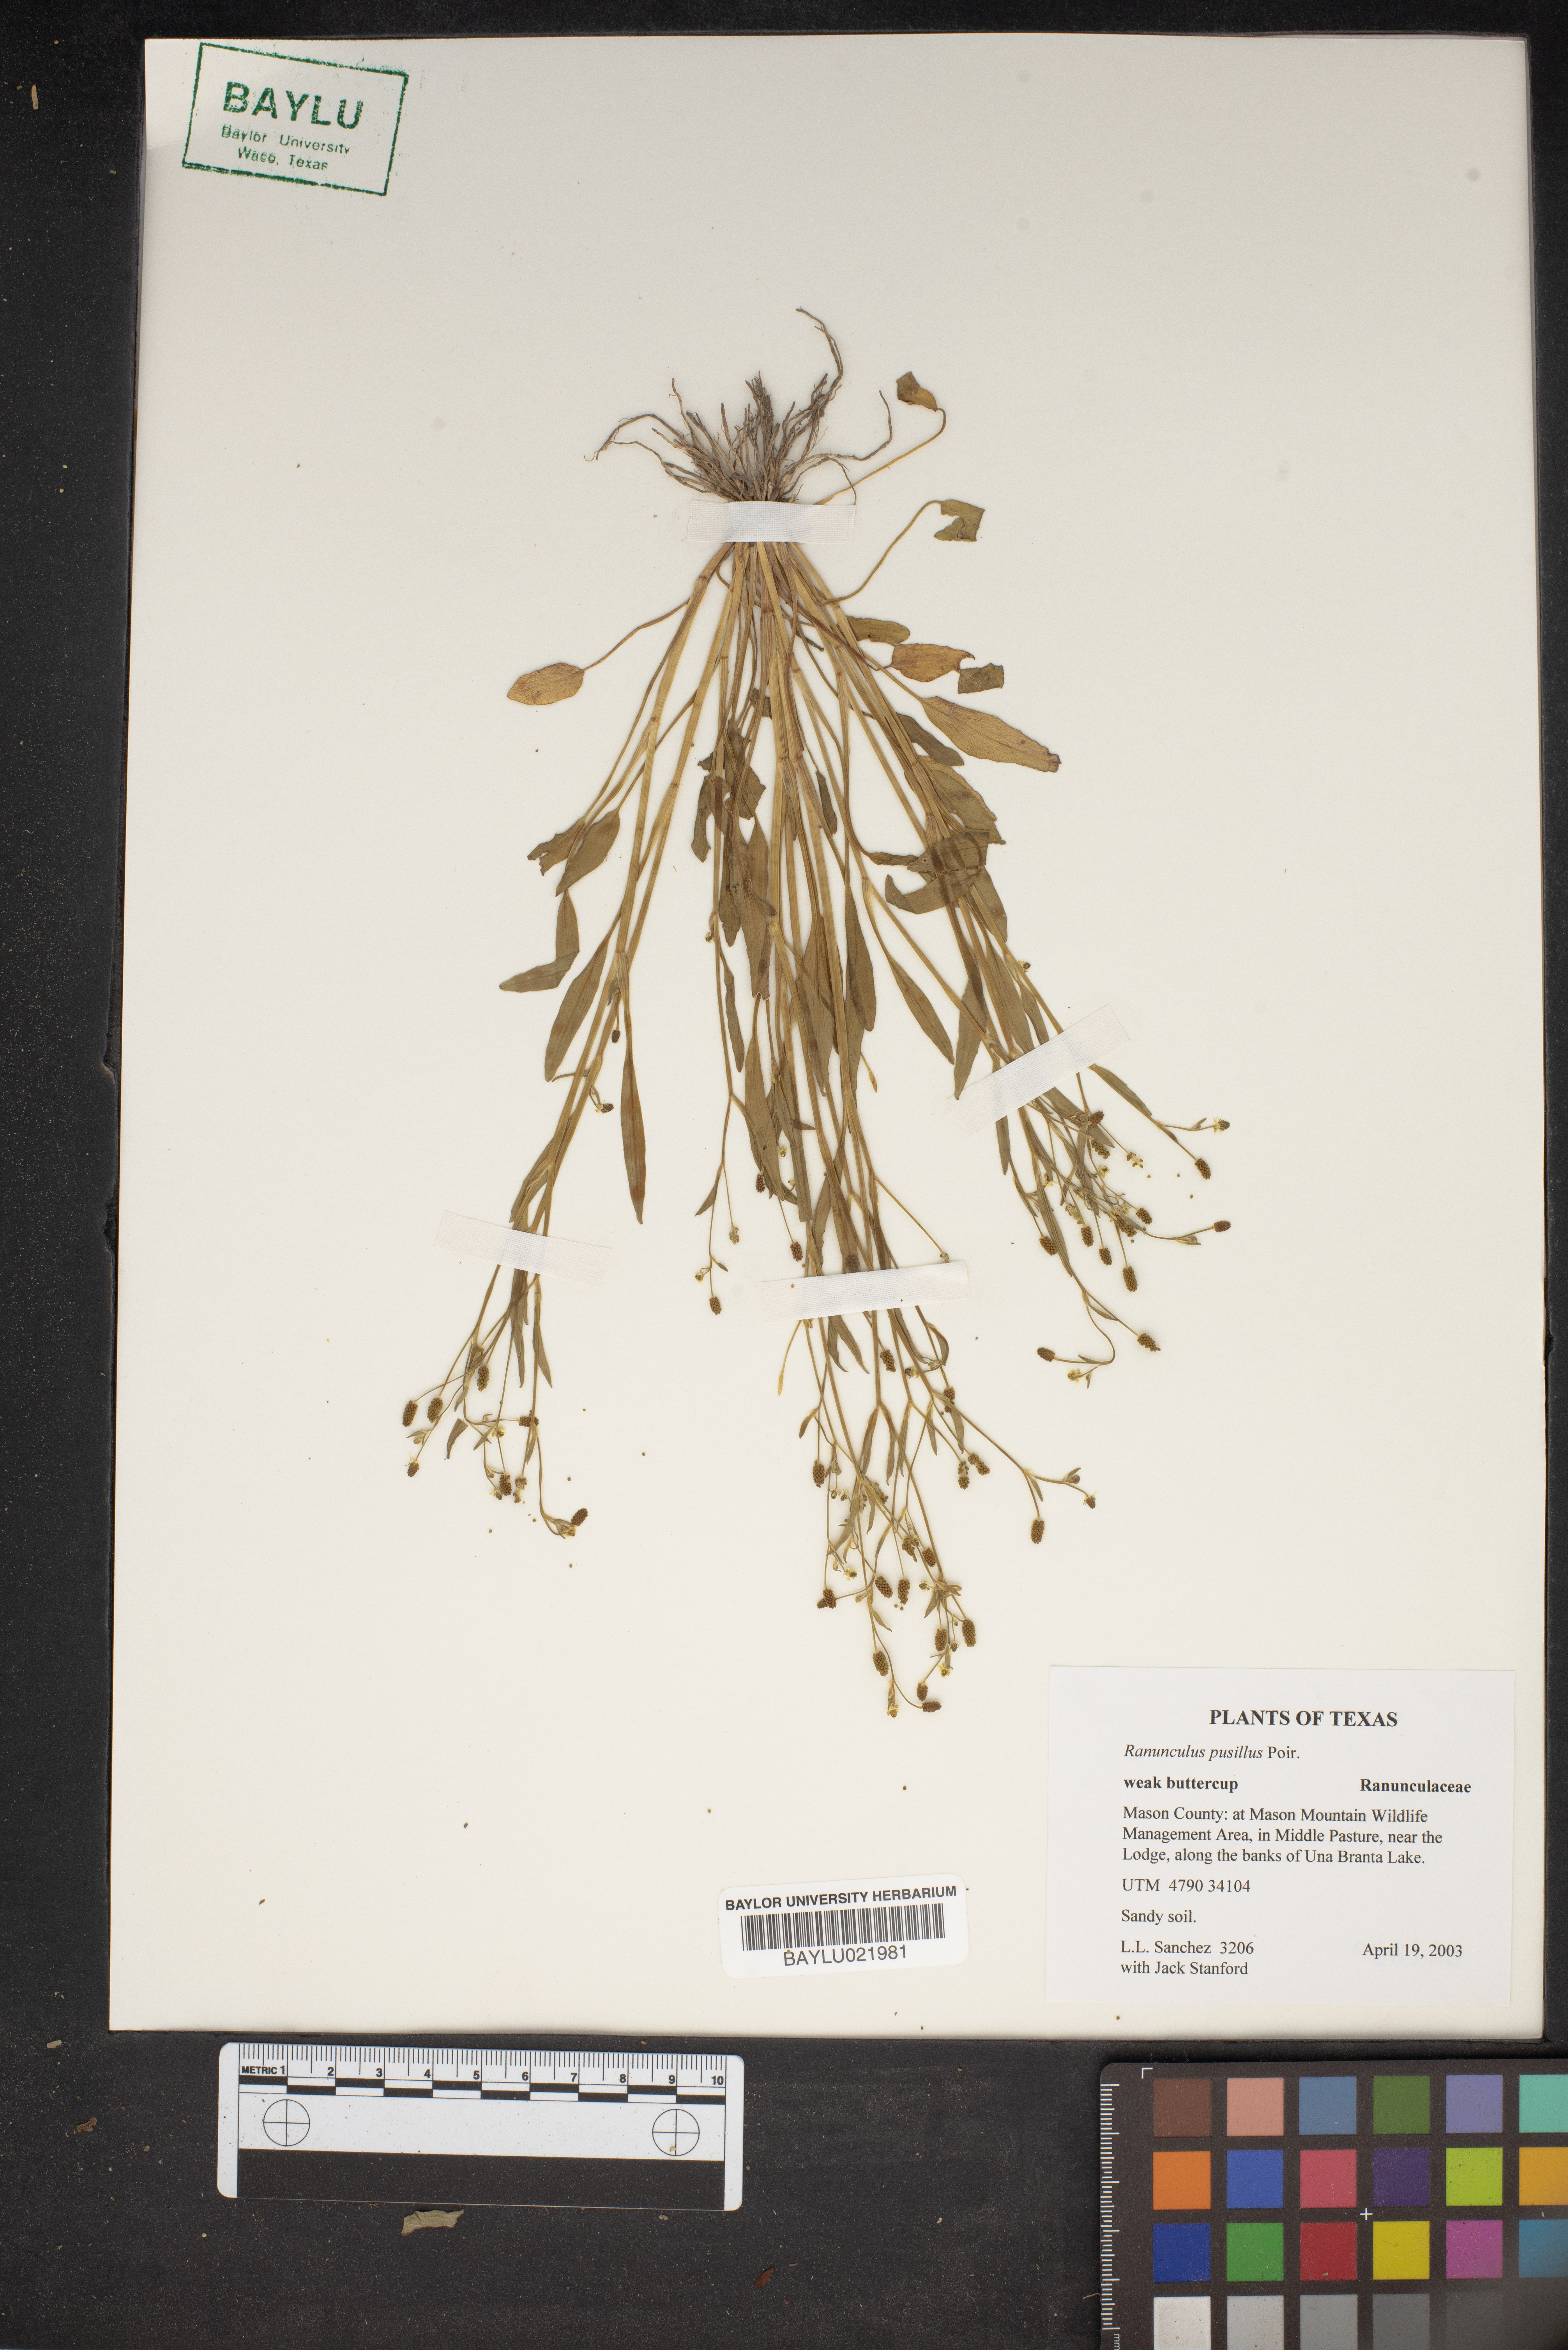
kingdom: Plantae
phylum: Tracheophyta
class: Magnoliopsida
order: Ranunculales
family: Ranunculaceae
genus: Ranunculus
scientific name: Ranunculus pusillus
